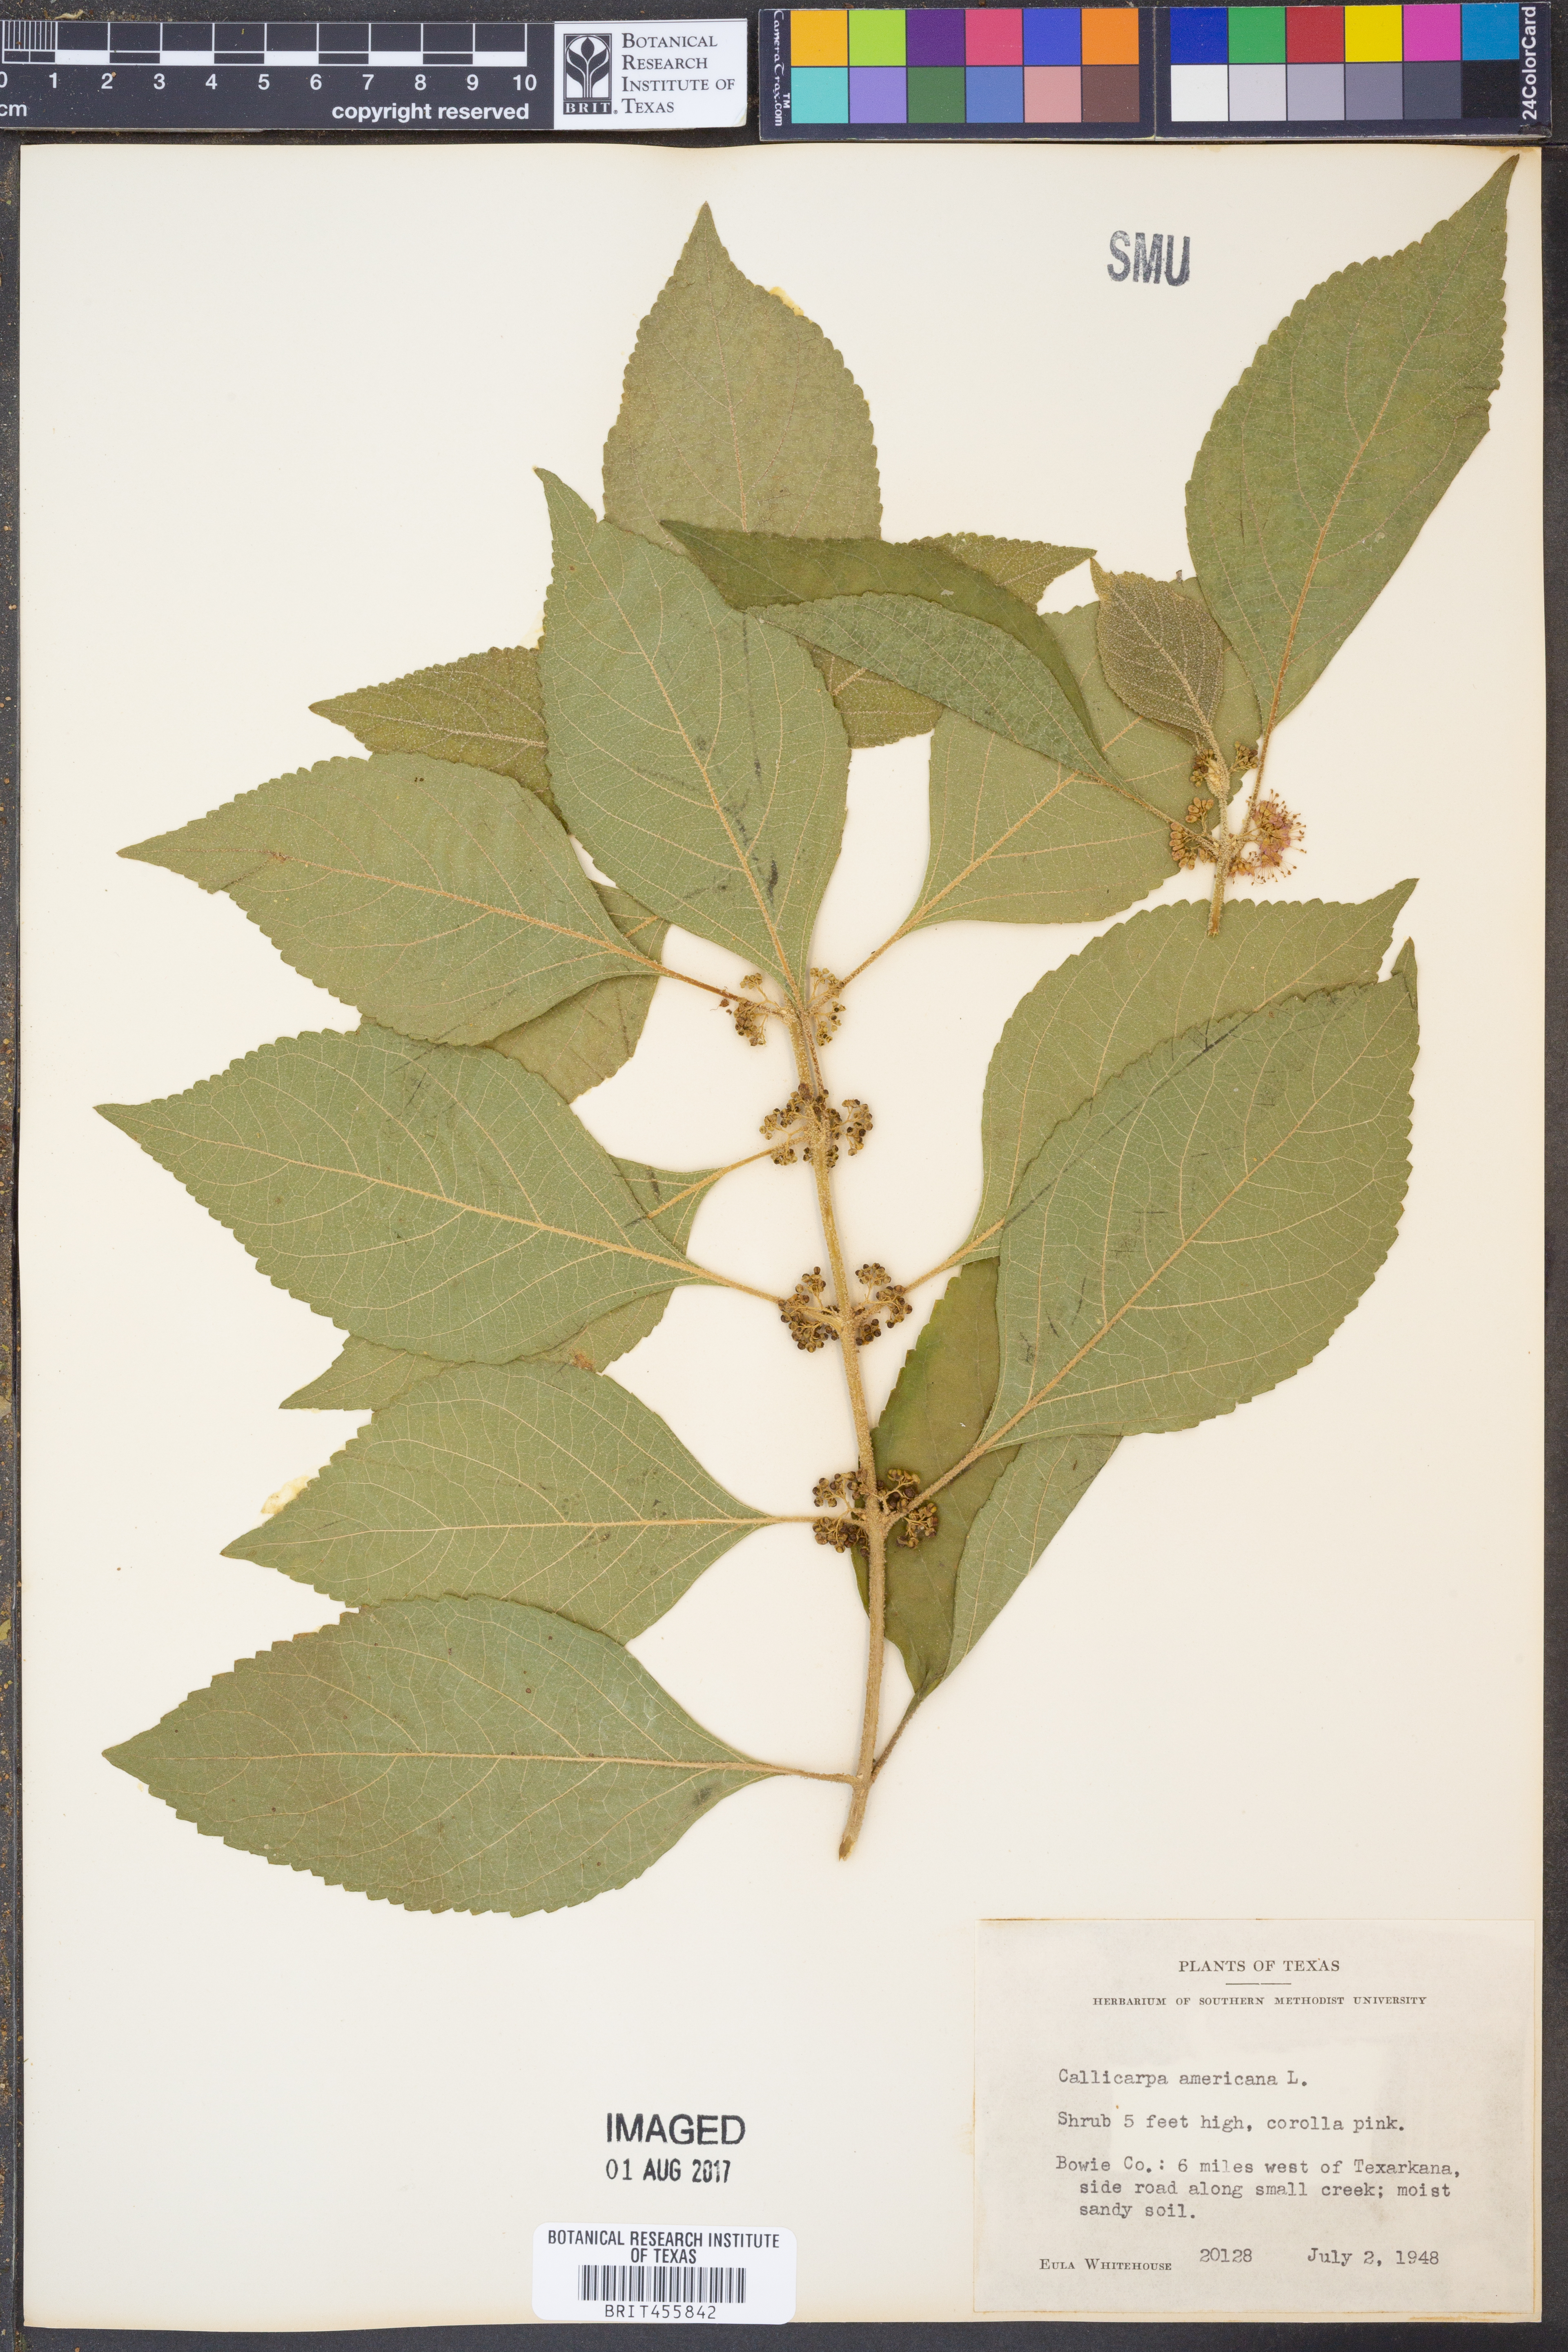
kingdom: Plantae
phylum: Tracheophyta
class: Magnoliopsida
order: Lamiales
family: Lamiaceae
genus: Callicarpa
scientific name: Callicarpa americana
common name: American beautyberry
